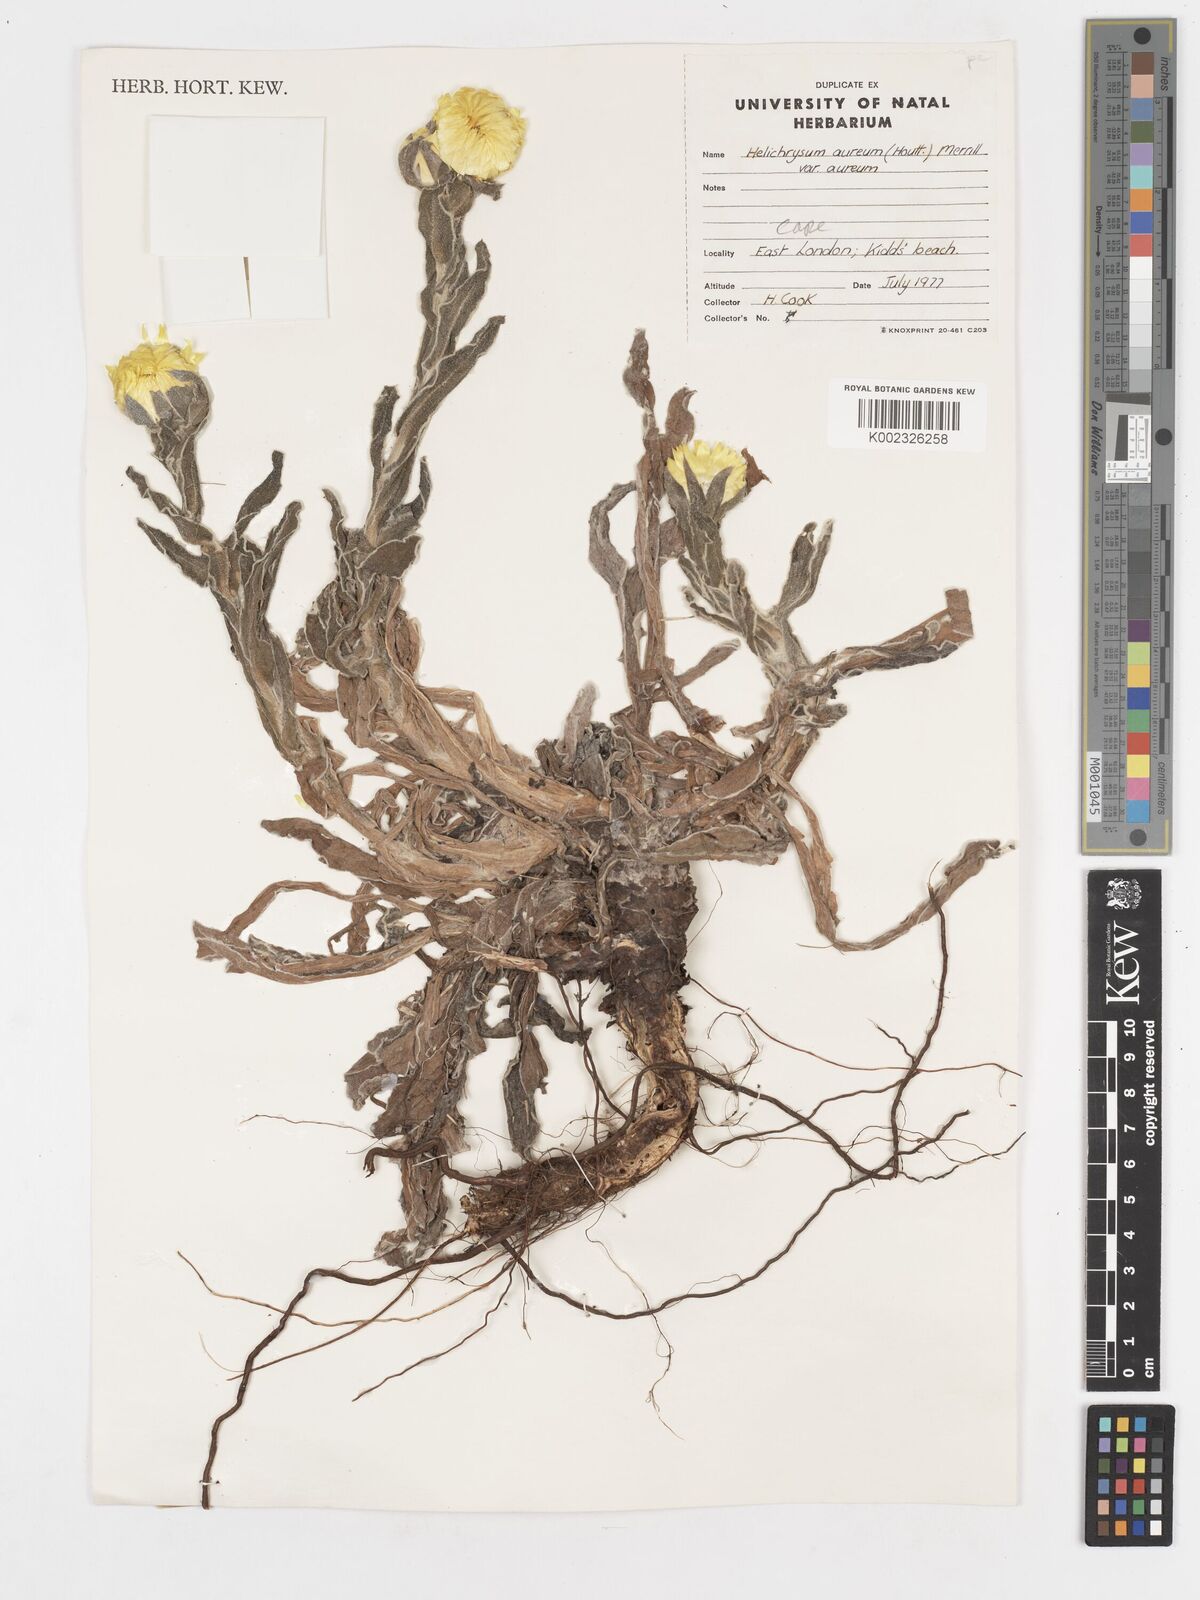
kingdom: Plantae
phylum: Tracheophyta
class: Magnoliopsida
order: Asterales
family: Asteraceae
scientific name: Asteraceae
